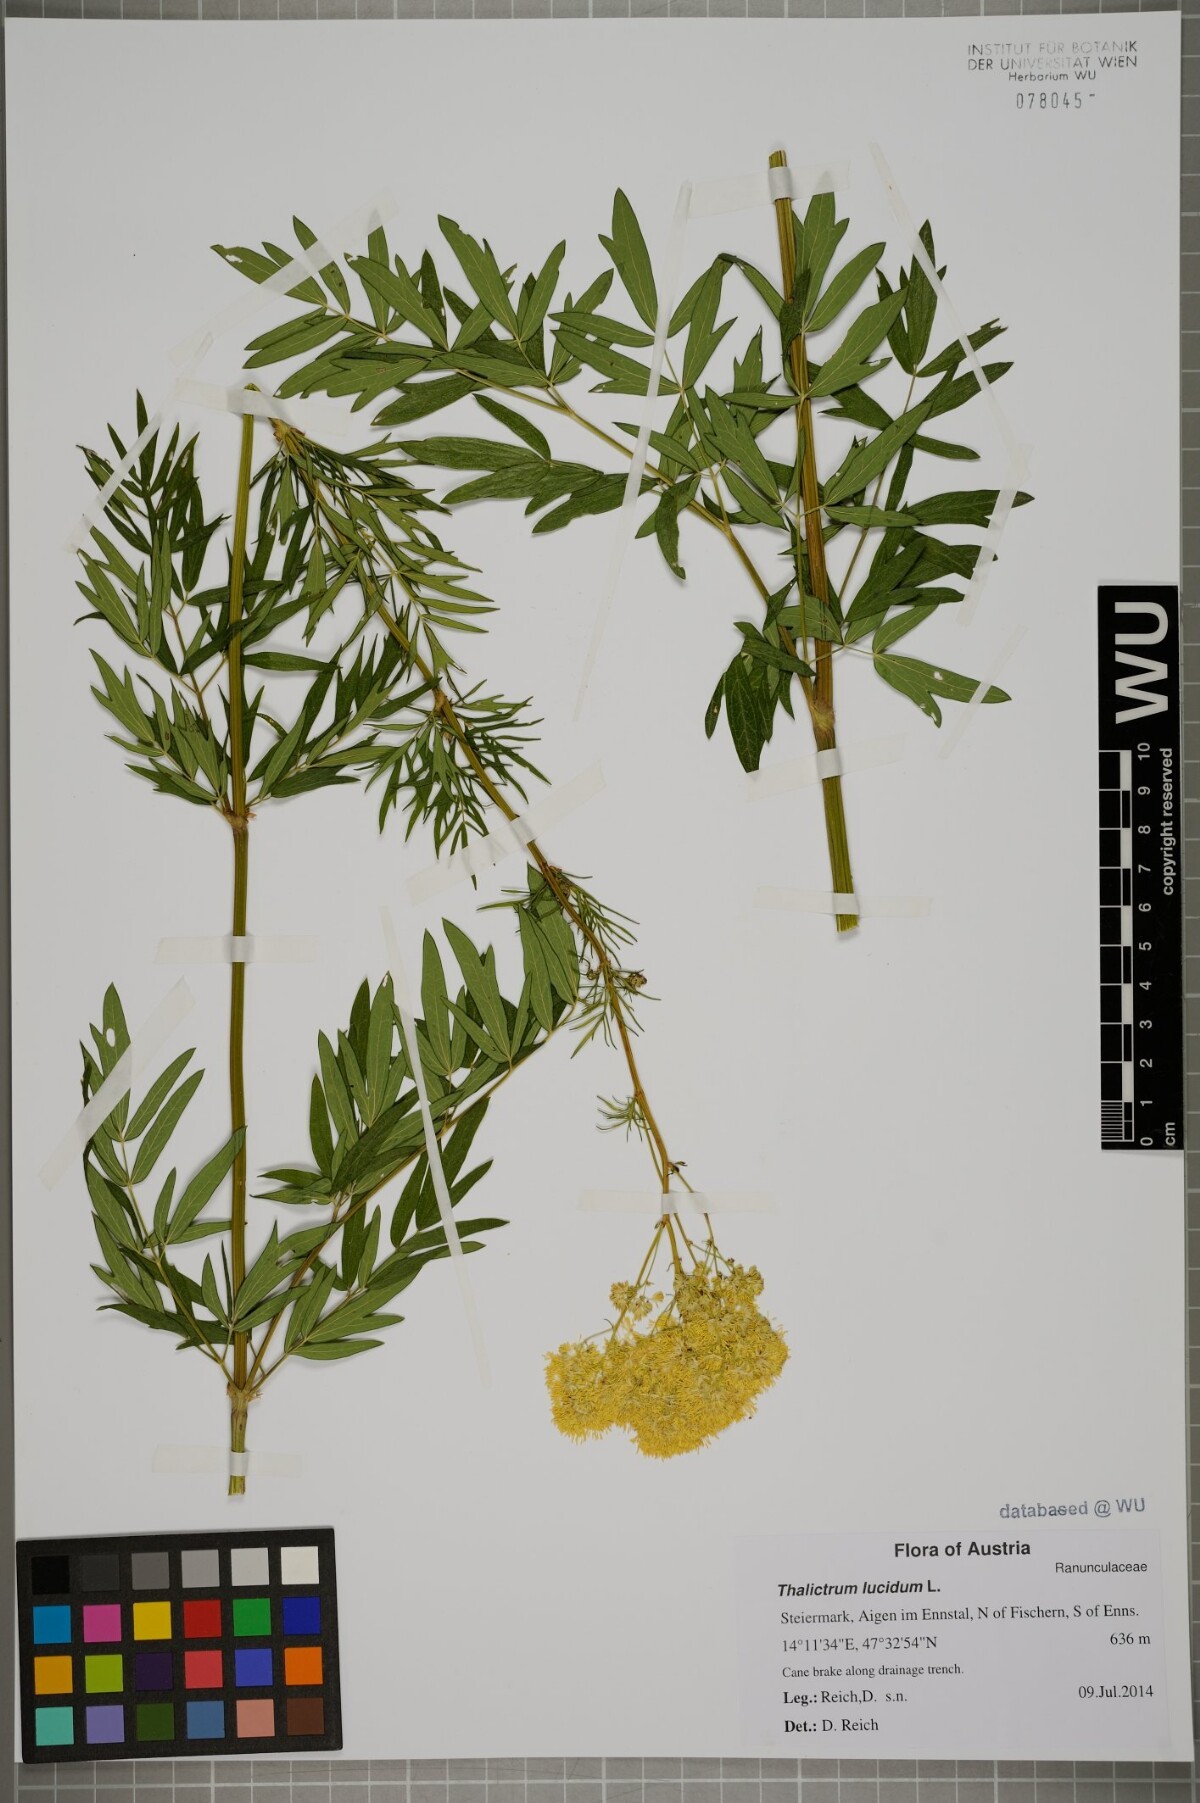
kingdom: Plantae
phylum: Tracheophyta
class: Magnoliopsida
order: Ranunculales
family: Ranunculaceae
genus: Thalictrum
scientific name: Thalictrum lucidum
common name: Shining meadow-rue
